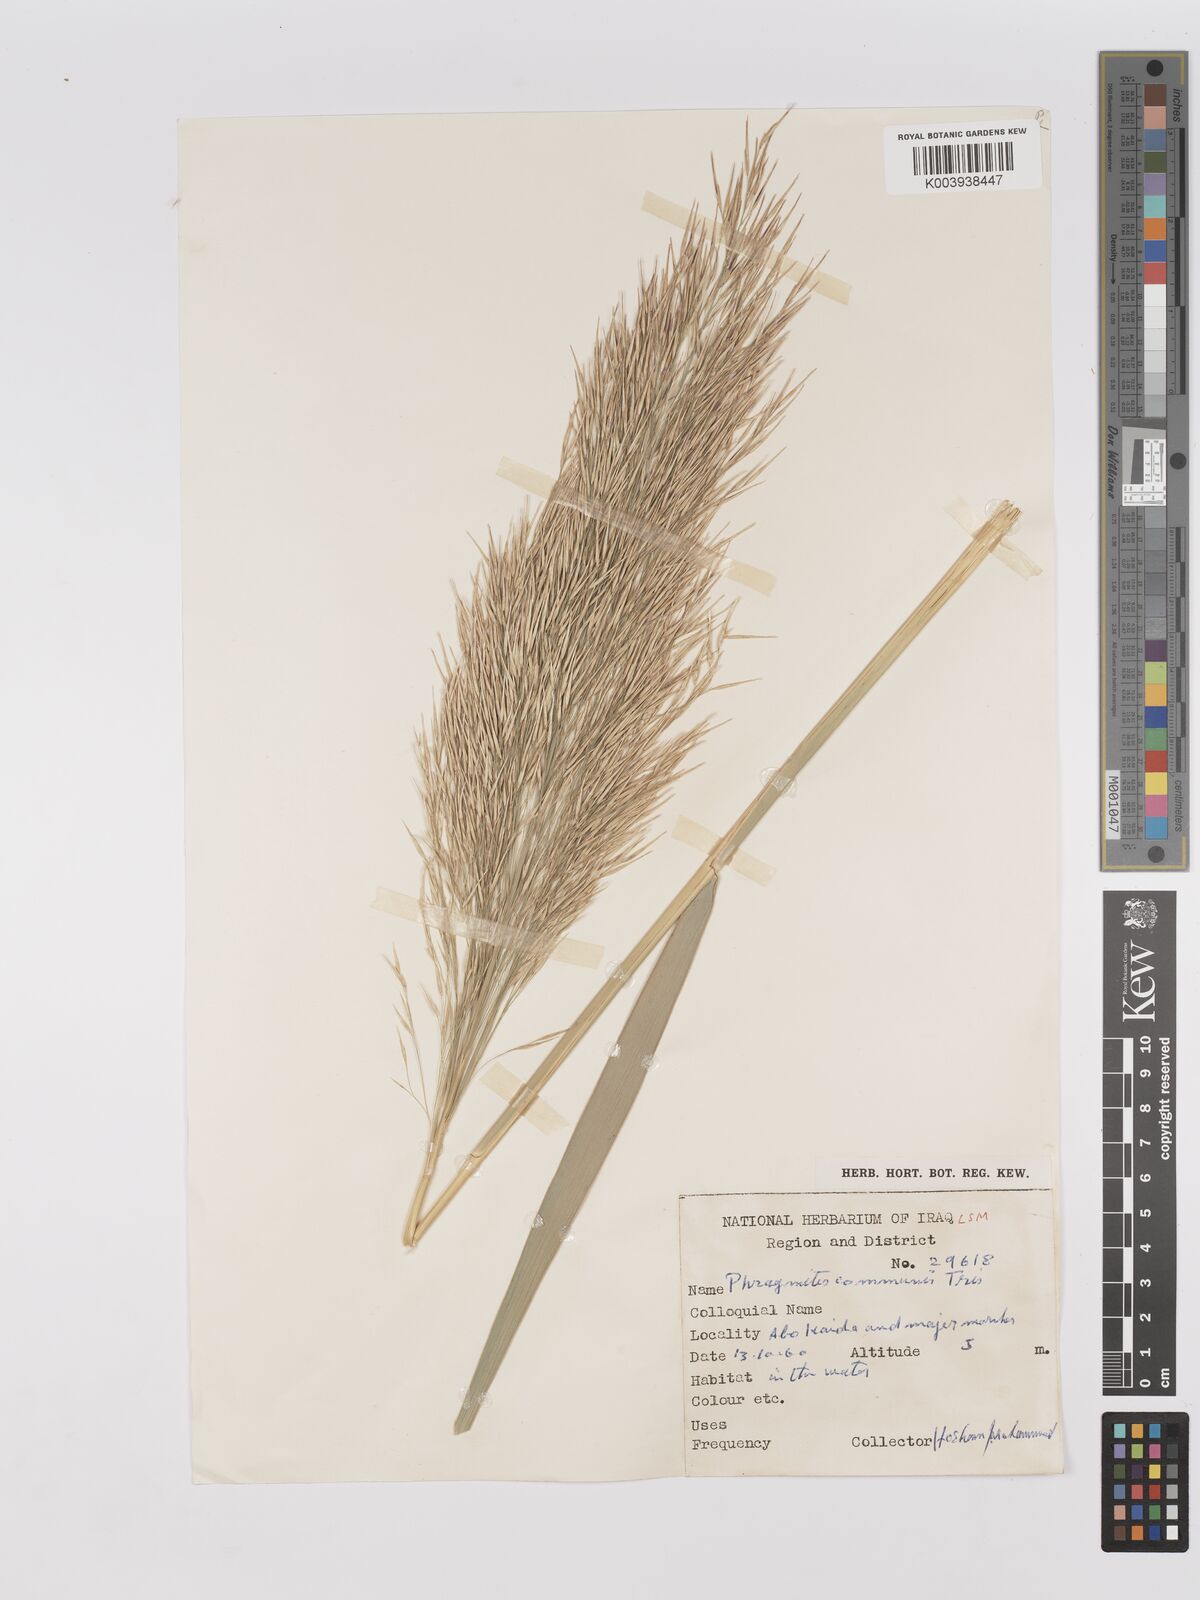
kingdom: Plantae
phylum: Tracheophyta
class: Liliopsida
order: Poales
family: Poaceae
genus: Phragmites
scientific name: Phragmites australis
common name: Common reed
